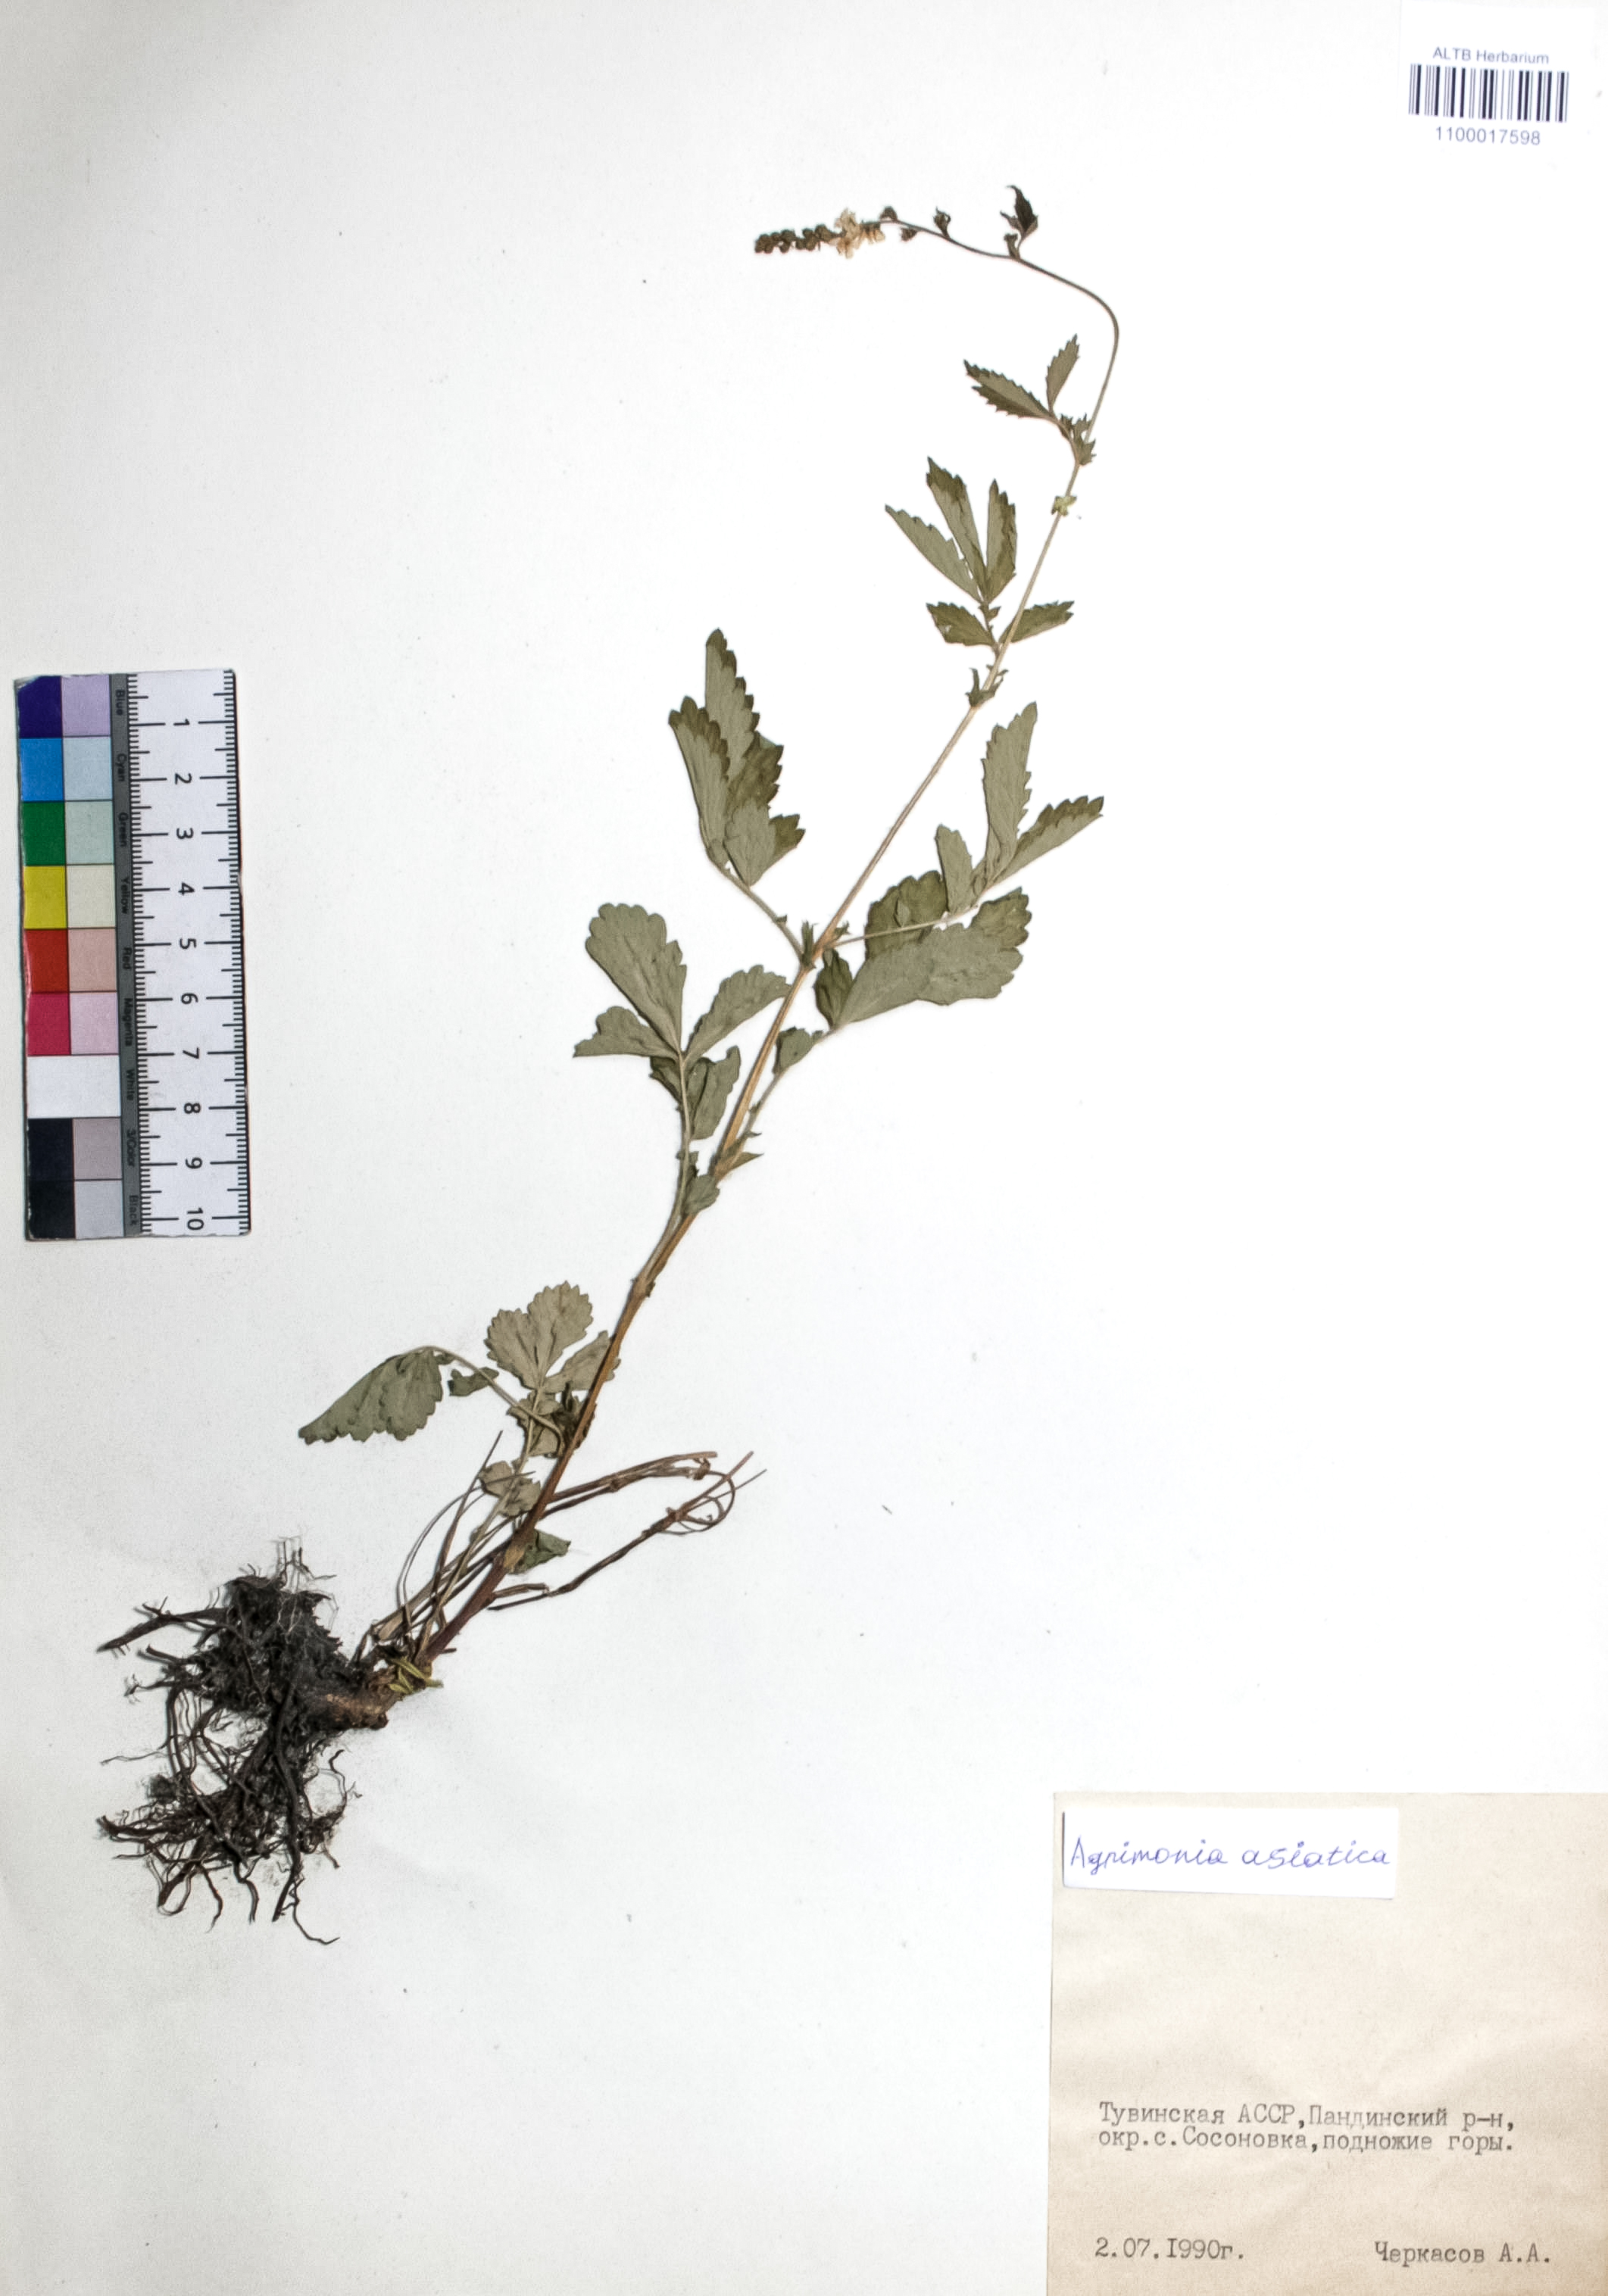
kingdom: Plantae
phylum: Tracheophyta
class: Magnoliopsida
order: Rosales
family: Rosaceae
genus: Agrimonia
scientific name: Agrimonia eupatoria
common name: Agrimony
